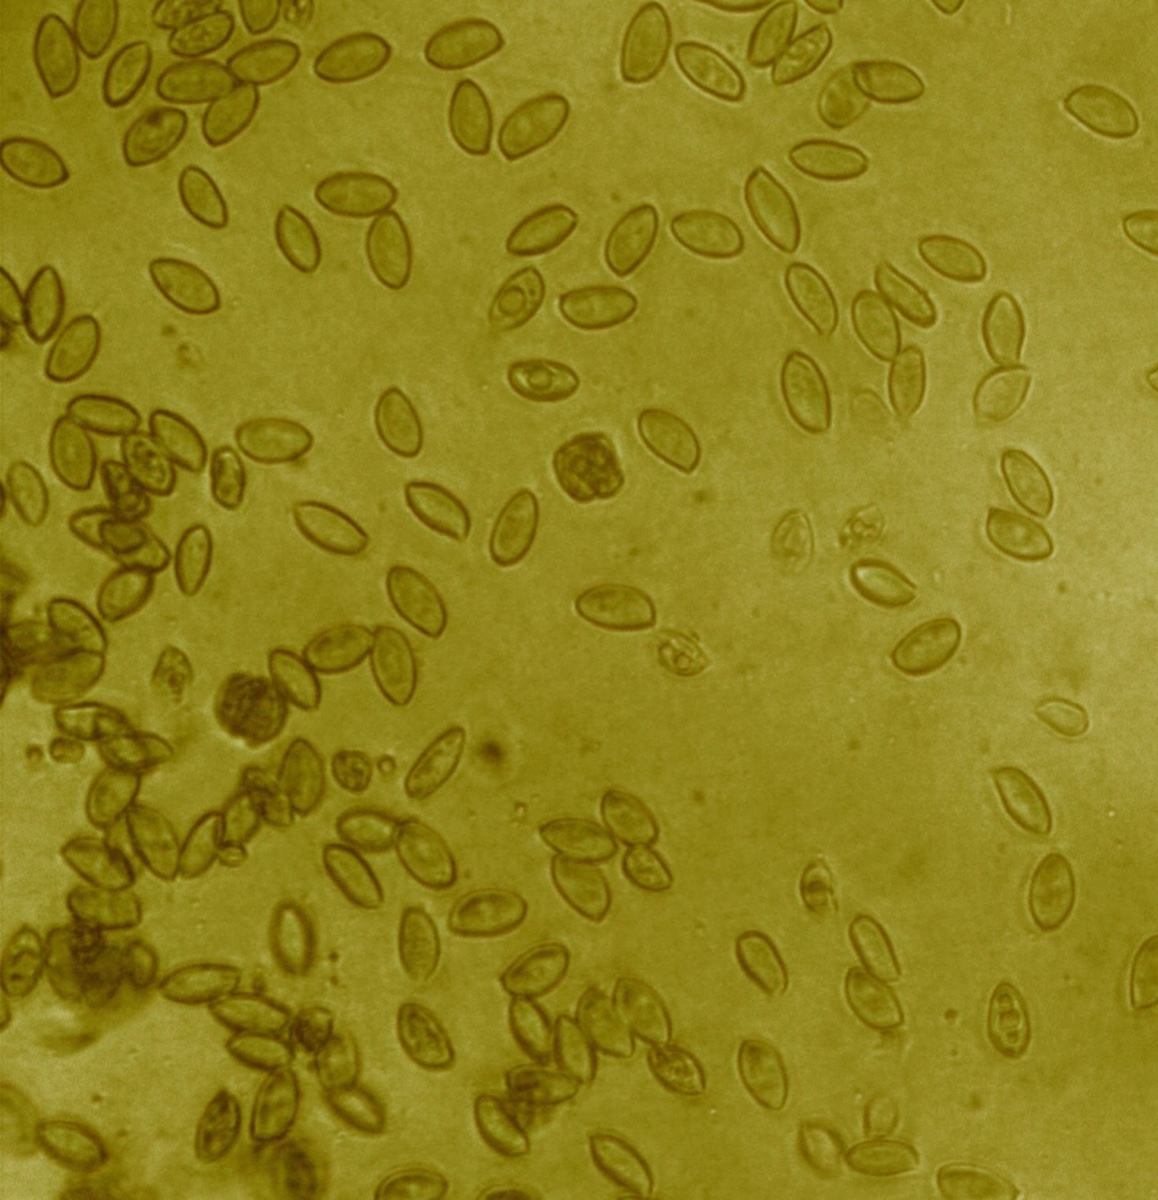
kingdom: Fungi
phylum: Basidiomycota
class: Agaricomycetes
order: Agaricales
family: Hymenogastraceae
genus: Galerina
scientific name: Galerina pumila
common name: honninggul hjelmhat
